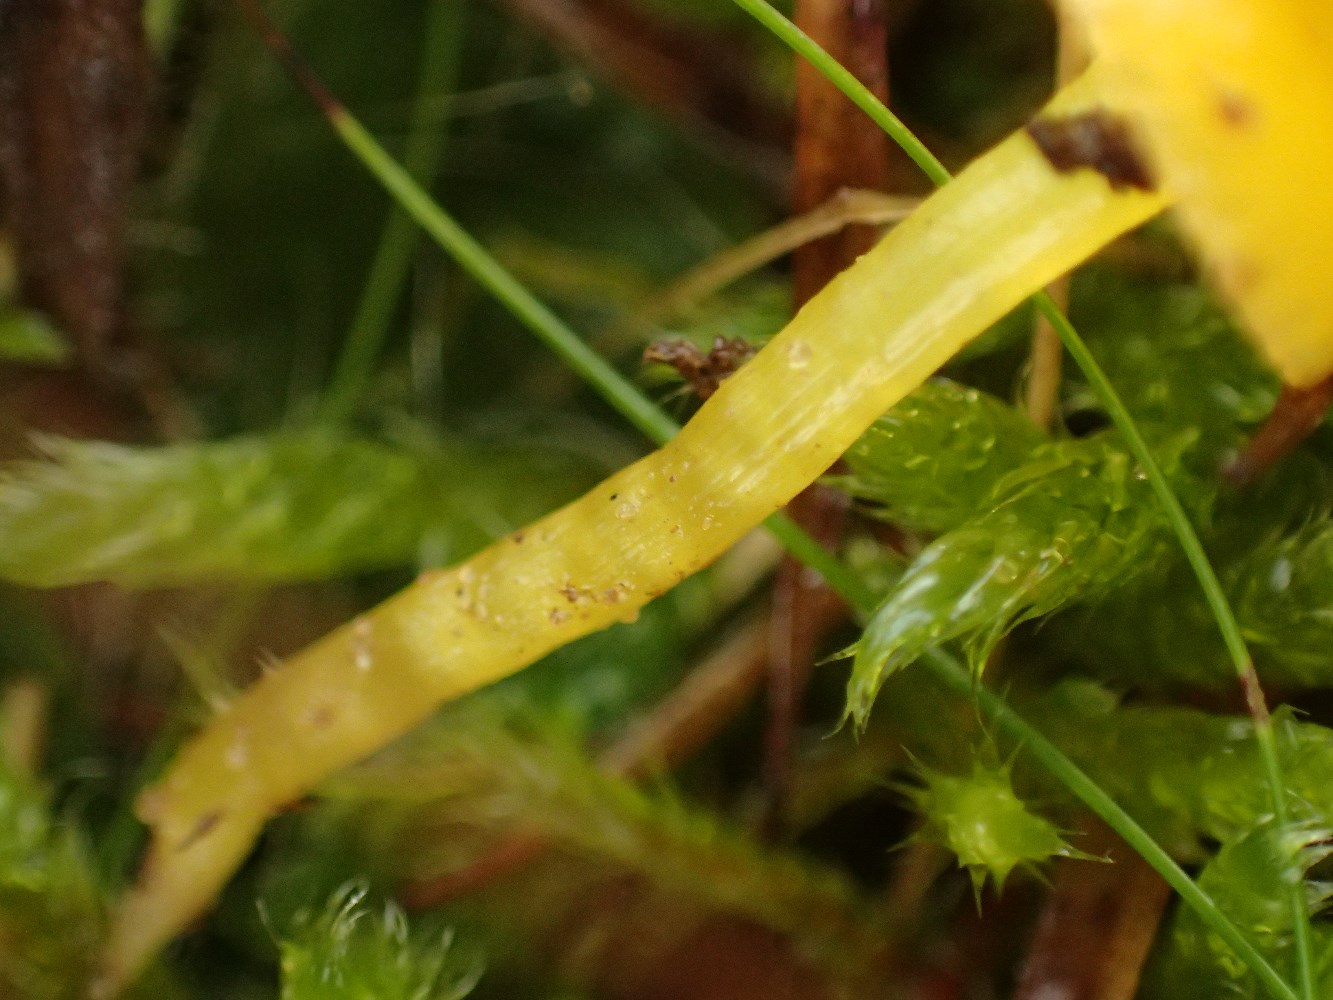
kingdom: Fungi
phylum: Basidiomycota
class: Agaricomycetes
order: Agaricales
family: Hygrophoraceae
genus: Hygrocybe
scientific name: Hygrocybe glutinipes
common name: slimstokket vokshat
